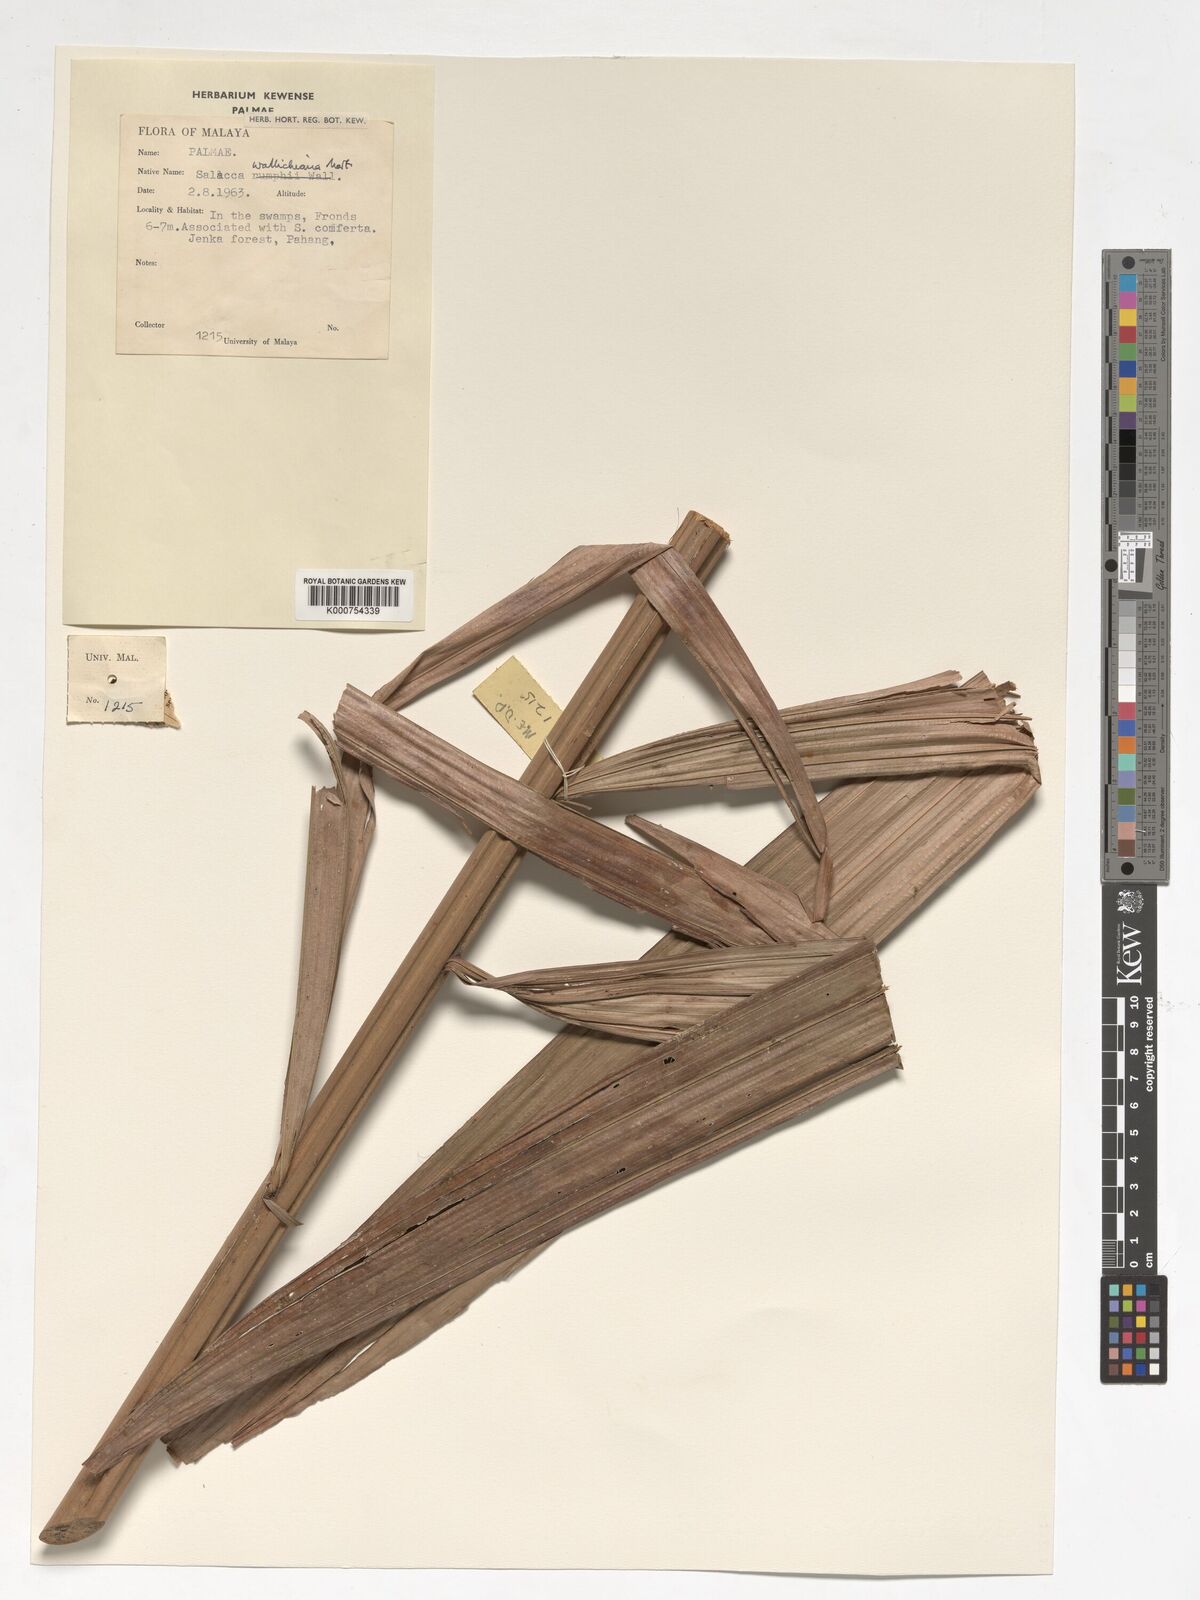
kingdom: Plantae
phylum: Tracheophyta
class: Liliopsida
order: Arecales
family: Arecaceae
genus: Salacca
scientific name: Salacca wallichiana
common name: Rakum palm
